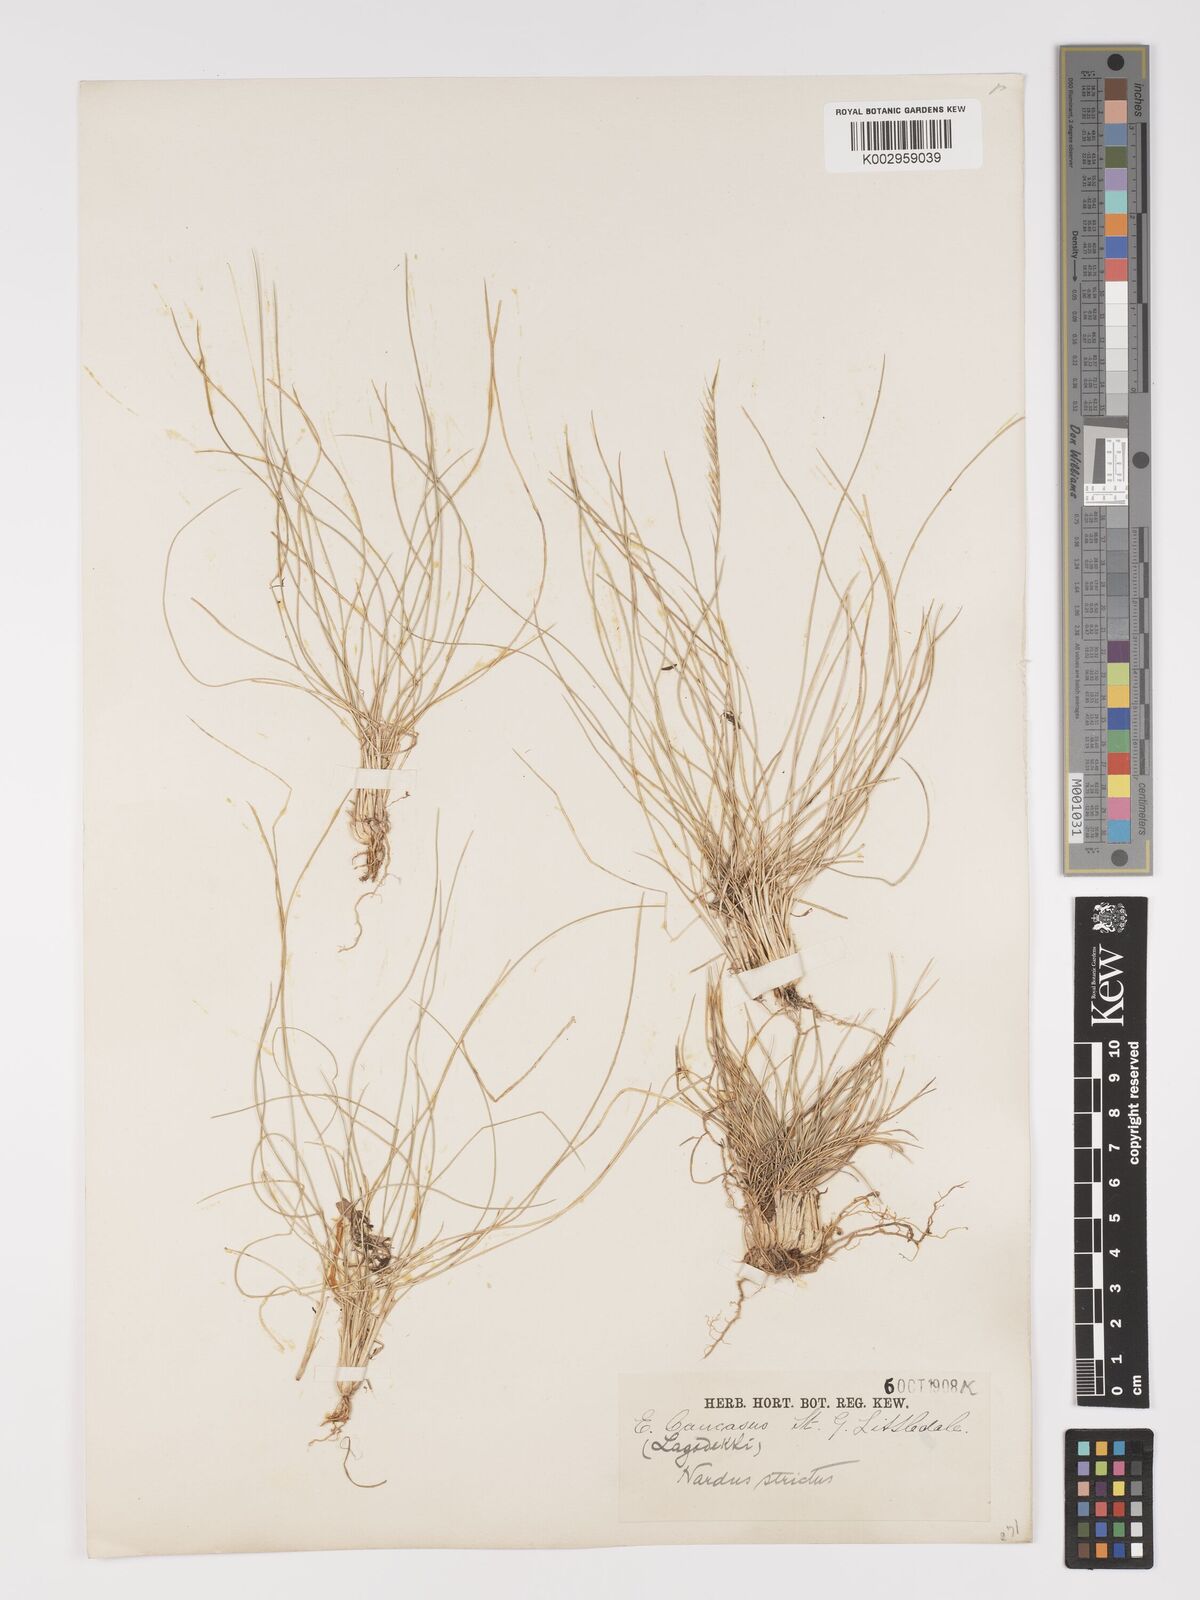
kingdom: Plantae
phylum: Tracheophyta
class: Liliopsida
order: Poales
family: Poaceae
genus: Nardus
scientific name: Nardus stricta
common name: Mat-grass
